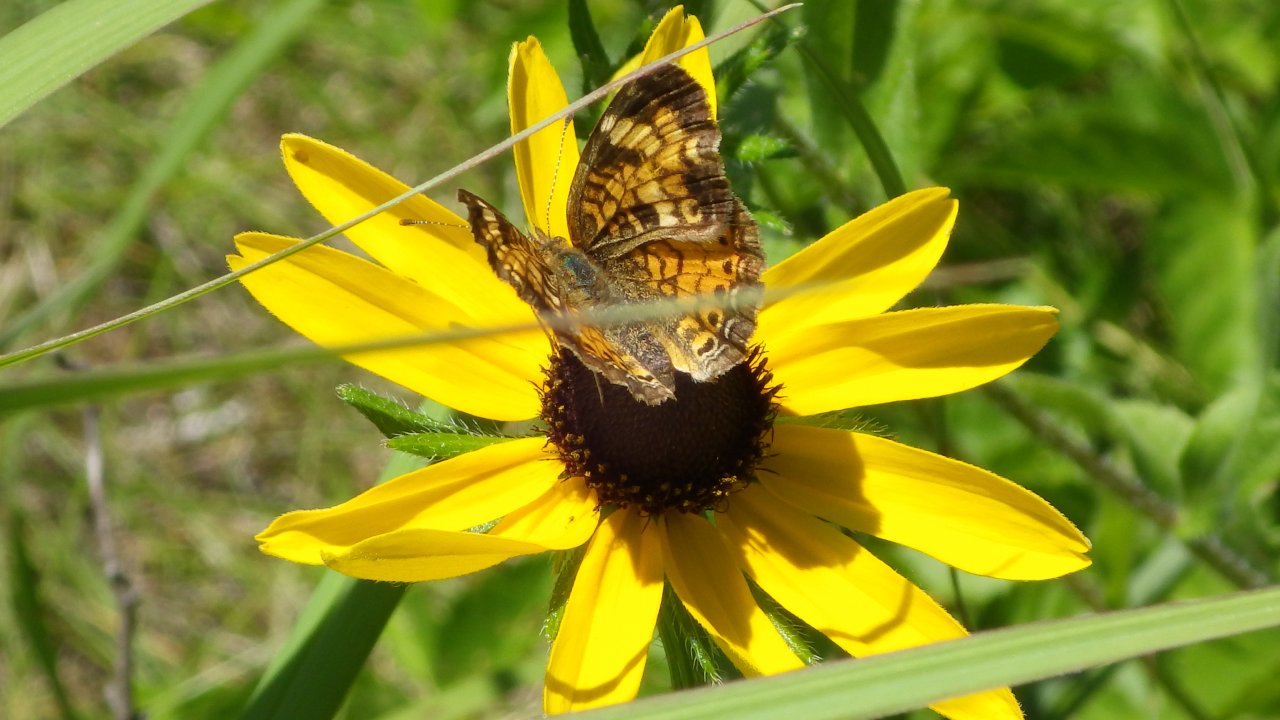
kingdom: Animalia
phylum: Arthropoda
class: Insecta
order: Lepidoptera
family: Nymphalidae
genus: Phyciodes
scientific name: Phyciodes tharos
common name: Pearl Crescent
